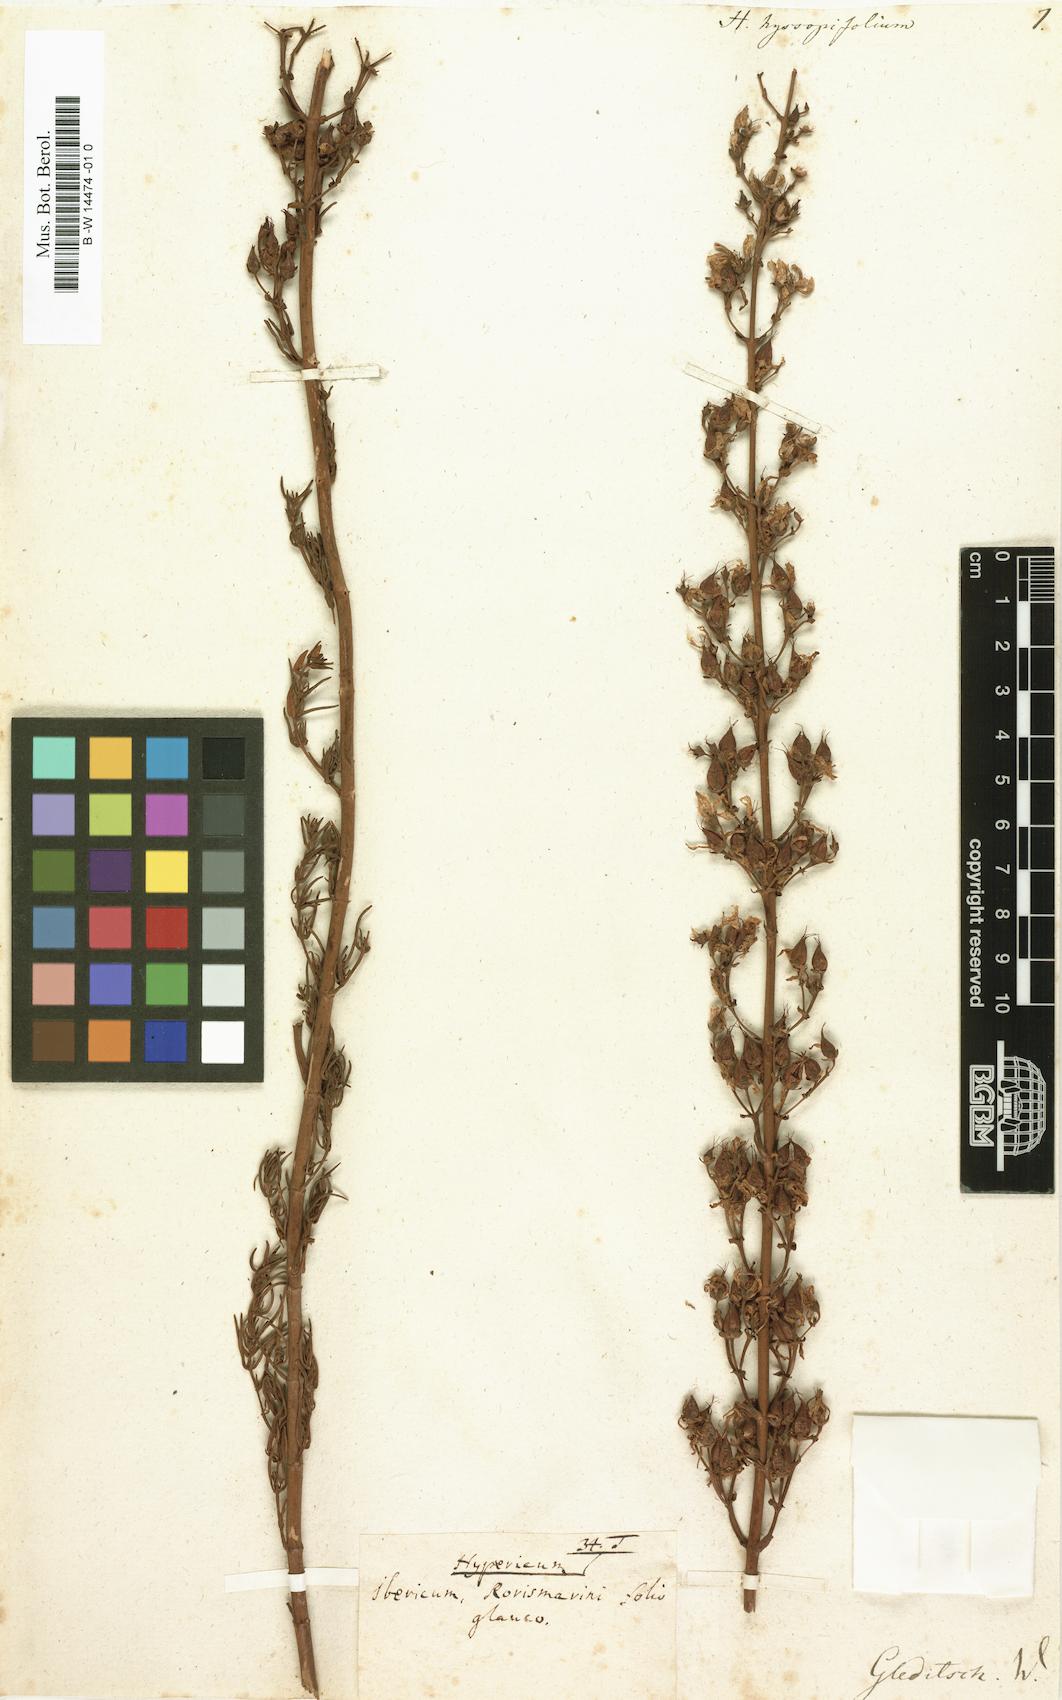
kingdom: Plantae
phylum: Tracheophyta
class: Magnoliopsida
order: Malpighiales
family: Hypericaceae
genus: Hypericum
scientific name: Hypericum hyssopifolium
